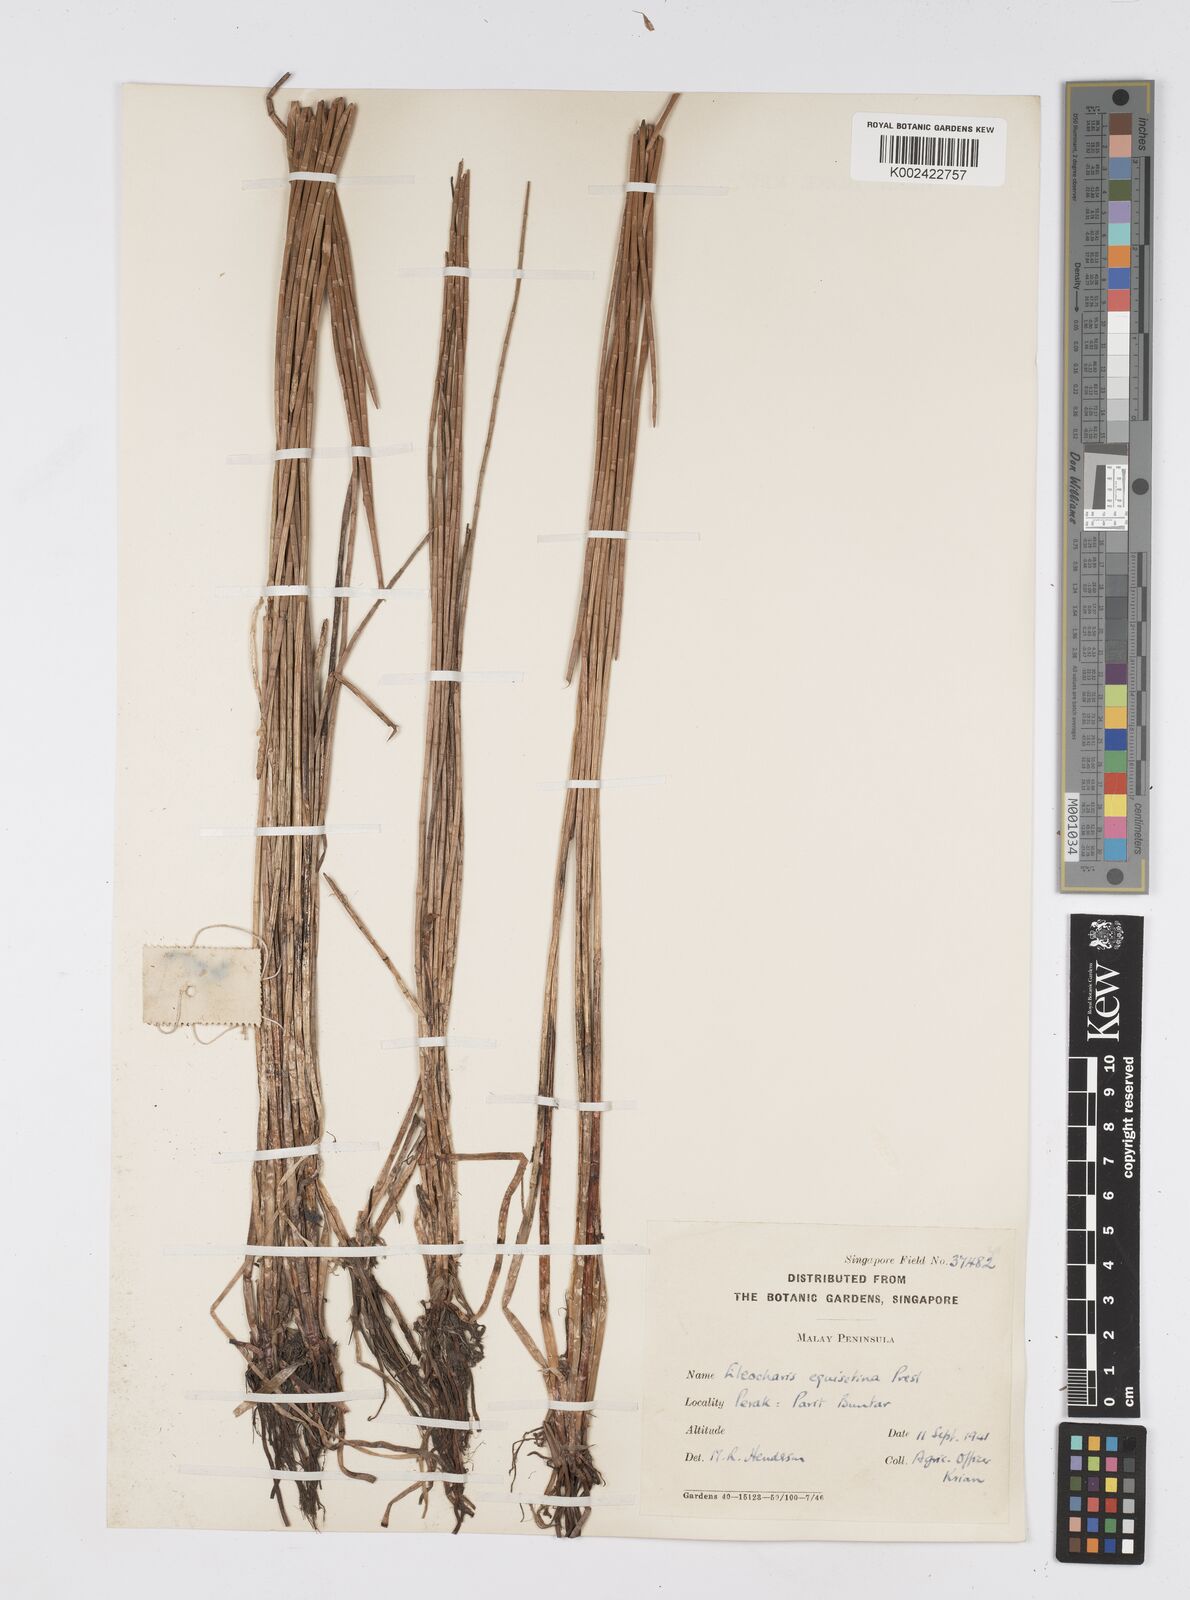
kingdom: Plantae
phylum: Tracheophyta
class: Liliopsida
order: Poales
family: Cyperaceae
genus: Eleocharis
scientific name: Eleocharis dulcis
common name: Chinese water chestnut
